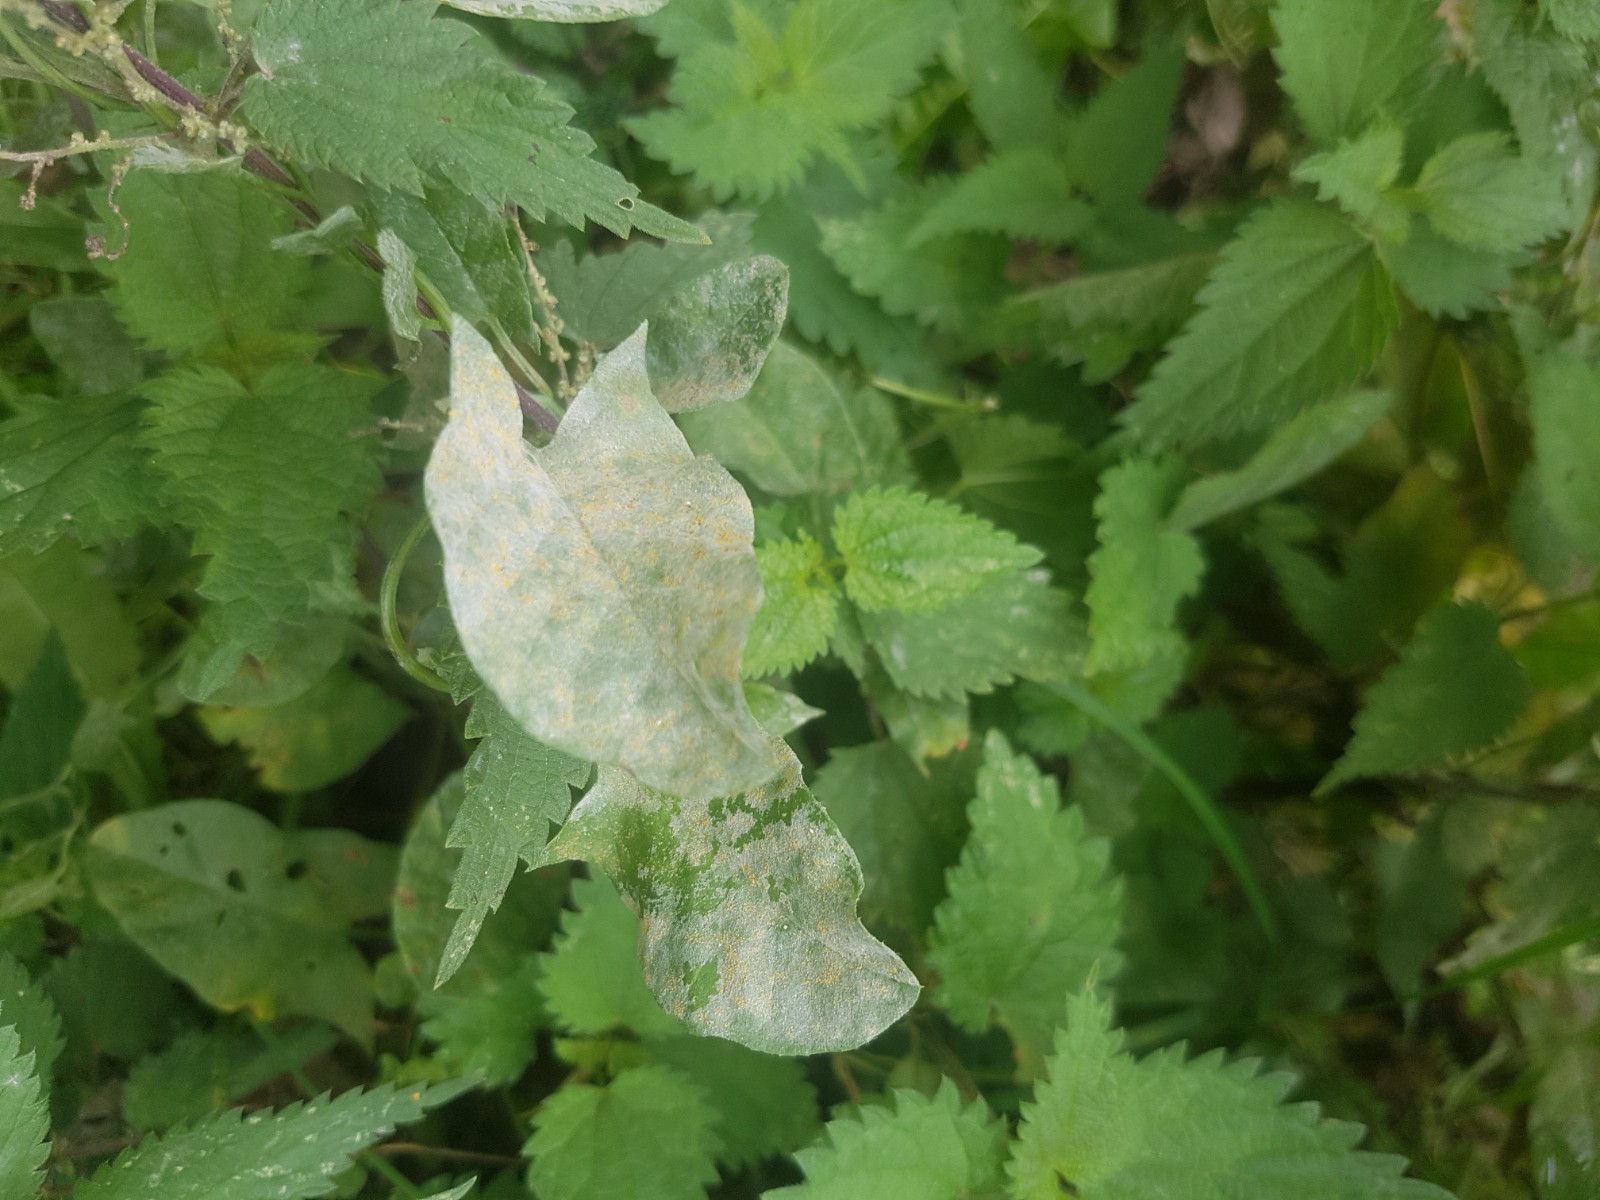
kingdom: Fungi
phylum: Ascomycota
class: Leotiomycetes
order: Helotiales
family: Erysiphaceae
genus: Erysiphe
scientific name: Erysiphe convolvuli
